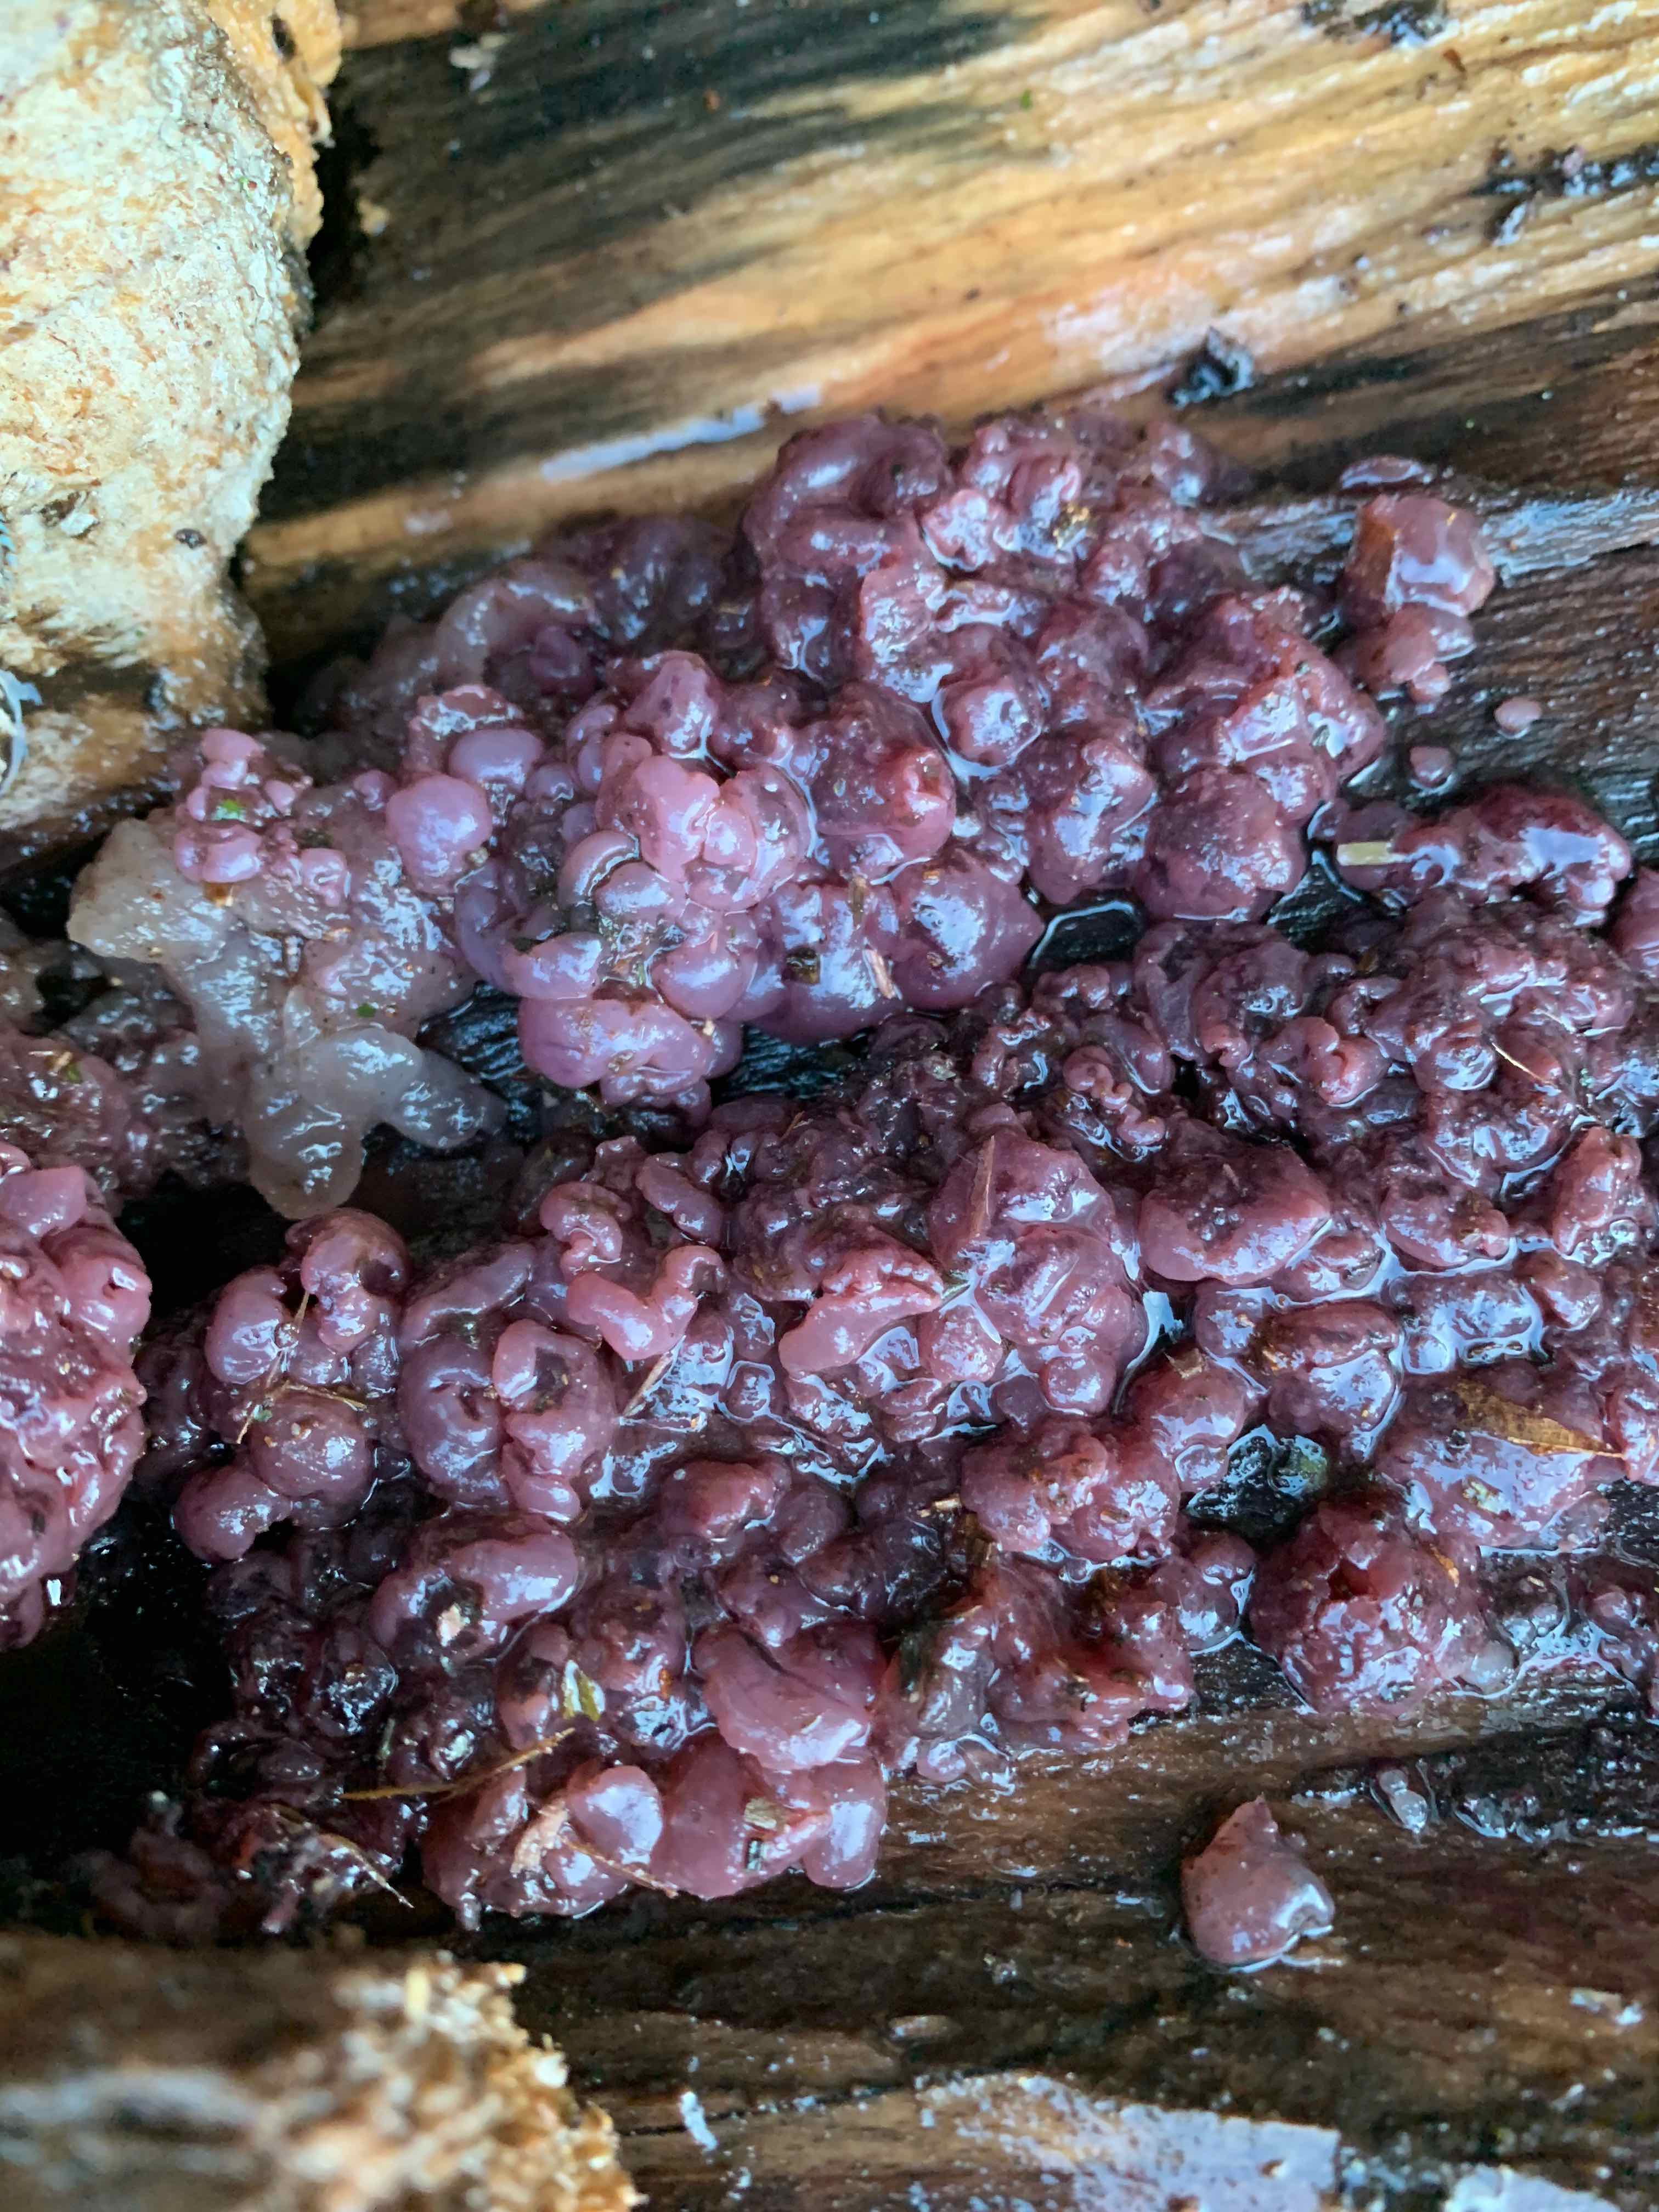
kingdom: Fungi
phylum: Ascomycota
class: Leotiomycetes
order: Helotiales
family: Gelatinodiscaceae
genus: Ascocoryne
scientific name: Ascocoryne sarcoides
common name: rødlilla sejskive
